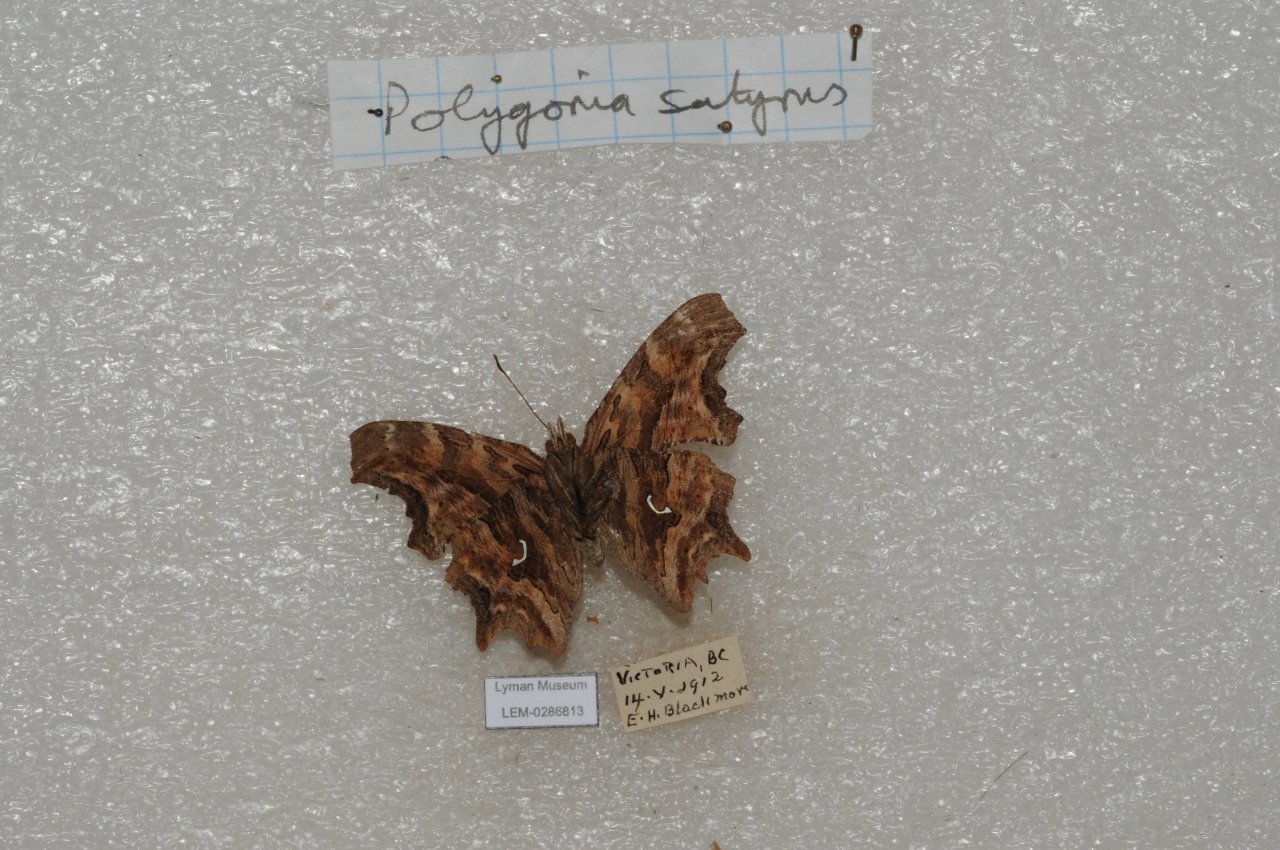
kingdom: Animalia
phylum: Arthropoda
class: Insecta
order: Lepidoptera
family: Nymphalidae
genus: Polygonia
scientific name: Polygonia satyrus
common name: Satyr Comma
